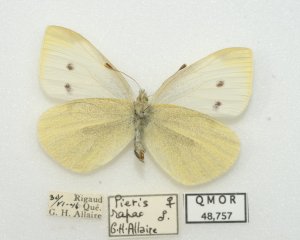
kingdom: Animalia
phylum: Arthropoda
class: Insecta
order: Lepidoptera
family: Pieridae
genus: Pieris
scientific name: Pieris rapae
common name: Cabbage White
